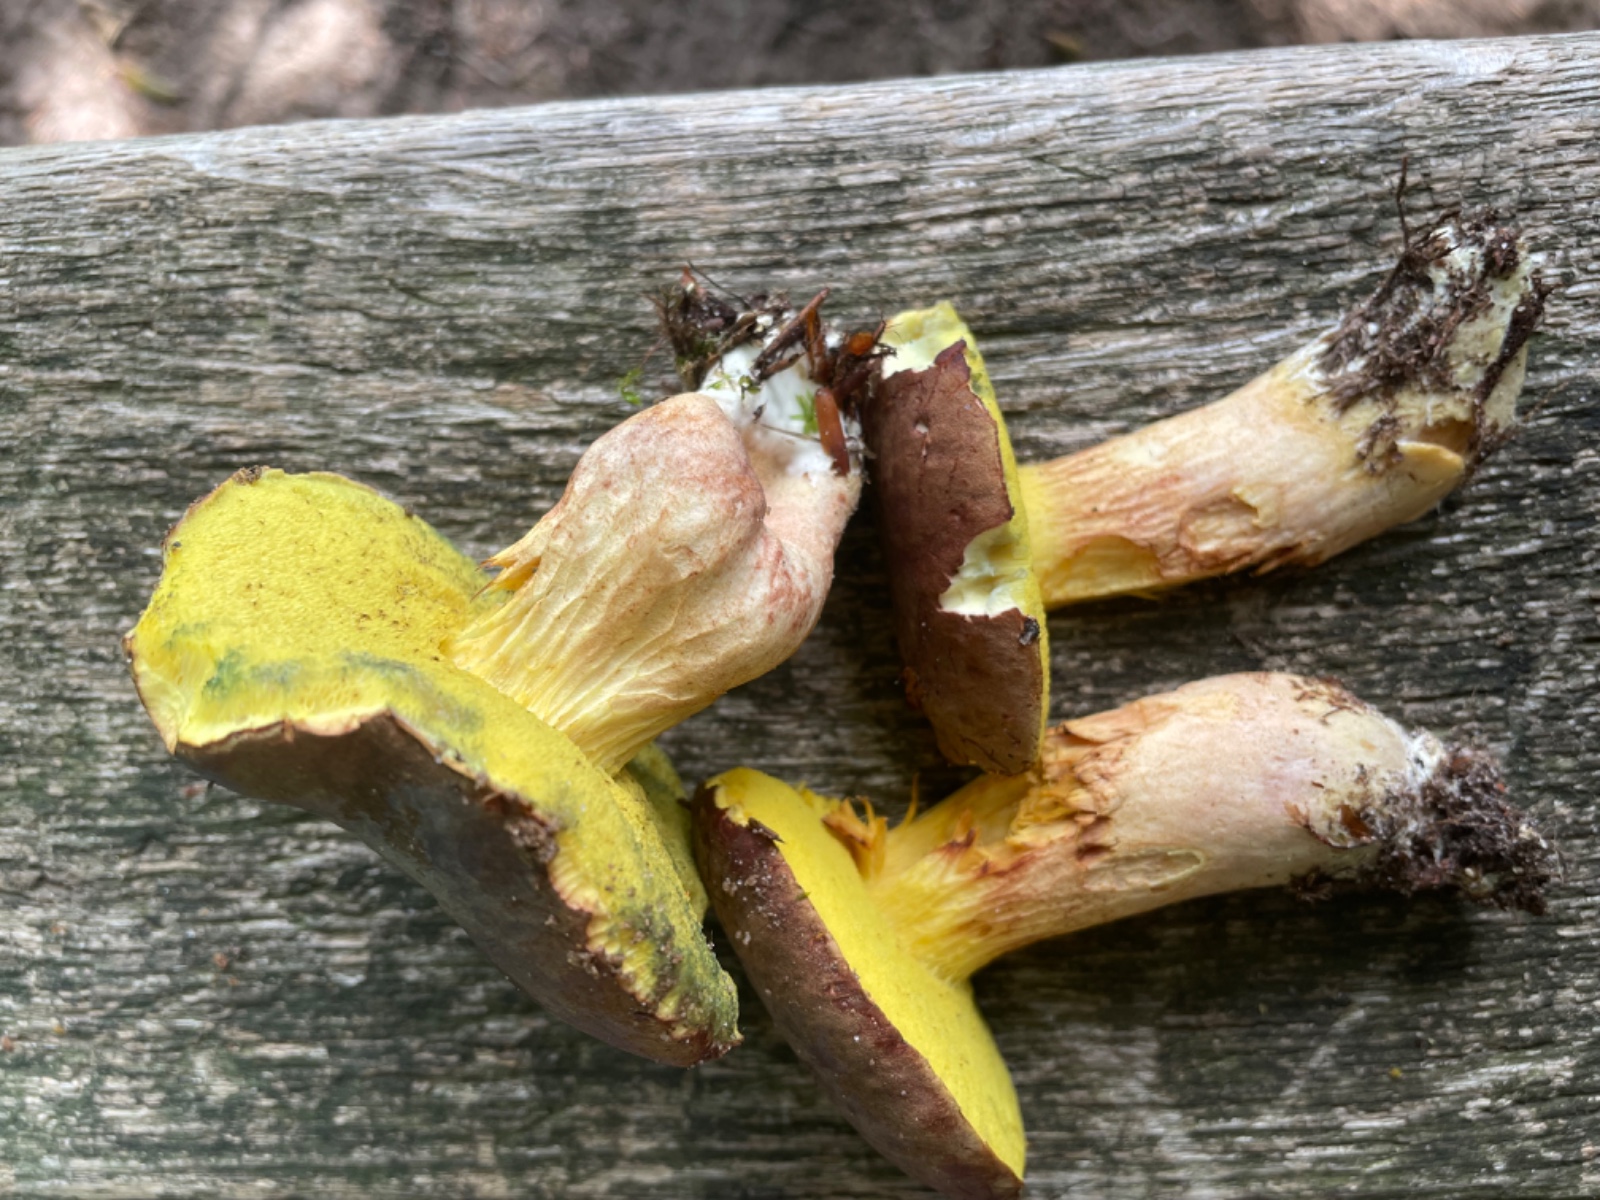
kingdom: Fungi
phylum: Basidiomycota
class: Agaricomycetes
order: Boletales
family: Boletaceae
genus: Xerocomus
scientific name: Xerocomus ferrugineus
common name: vaskeskinds-rørhat
